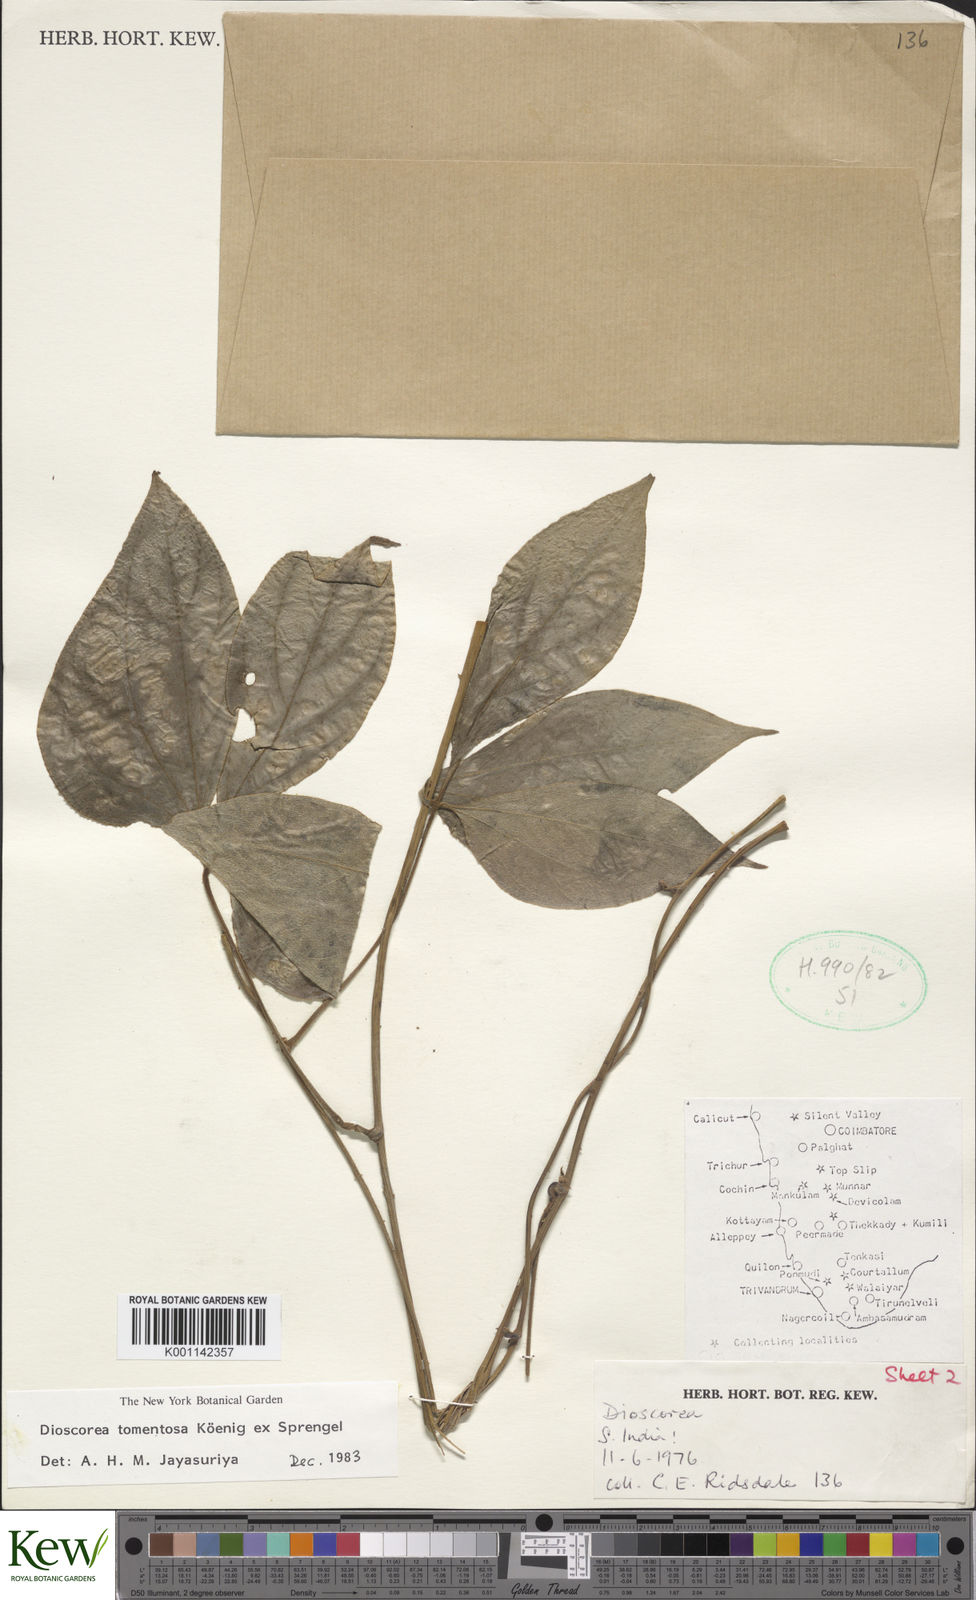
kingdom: Plantae
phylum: Tracheophyta
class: Liliopsida
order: Dioscoreales
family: Dioscoreaceae
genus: Dioscorea
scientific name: Dioscorea
